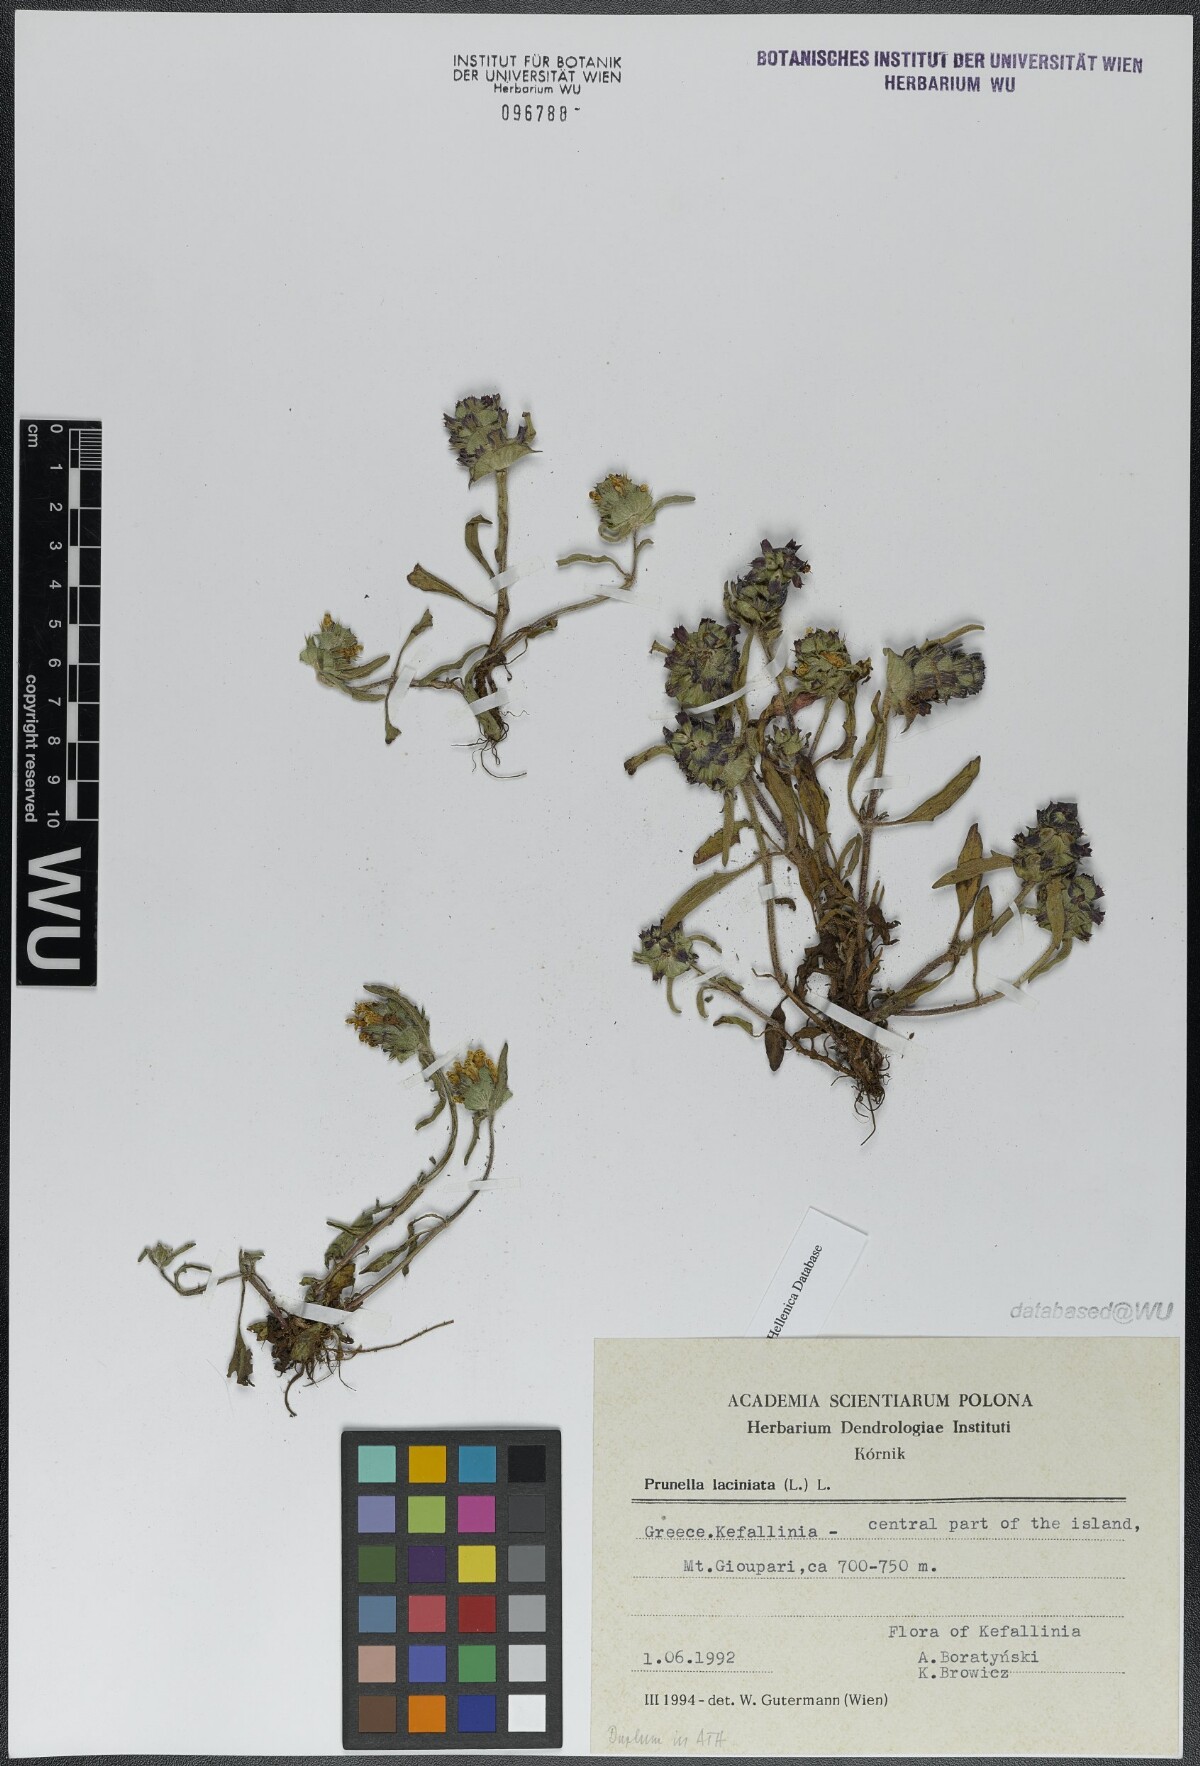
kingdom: Plantae
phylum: Tracheophyta
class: Magnoliopsida
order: Lamiales
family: Lamiaceae
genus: Prunella
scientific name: Prunella laciniata
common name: Cut-leaved selfheal
